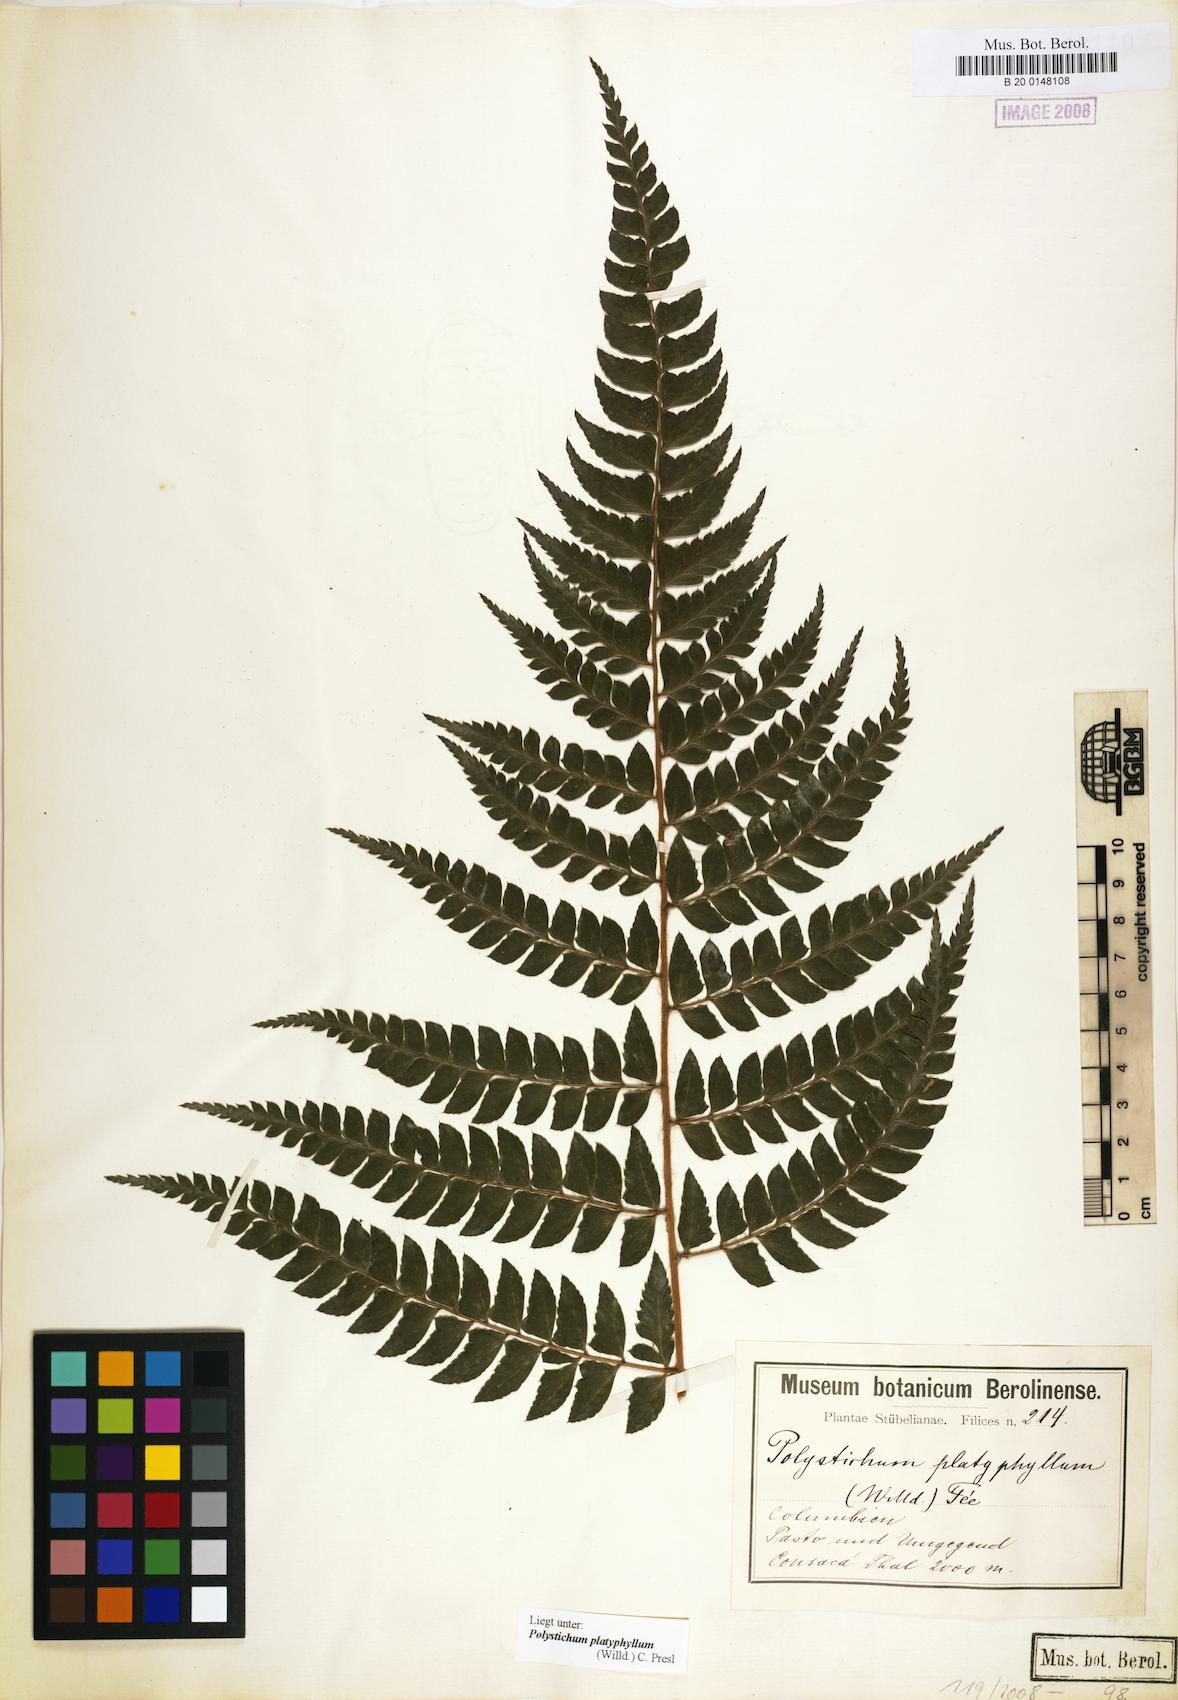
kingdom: Plantae
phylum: Tracheophyta
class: Polypodiopsida
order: Polypodiales
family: Dryopteridaceae
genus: Polystichum
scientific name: Polystichum platyphyllum
